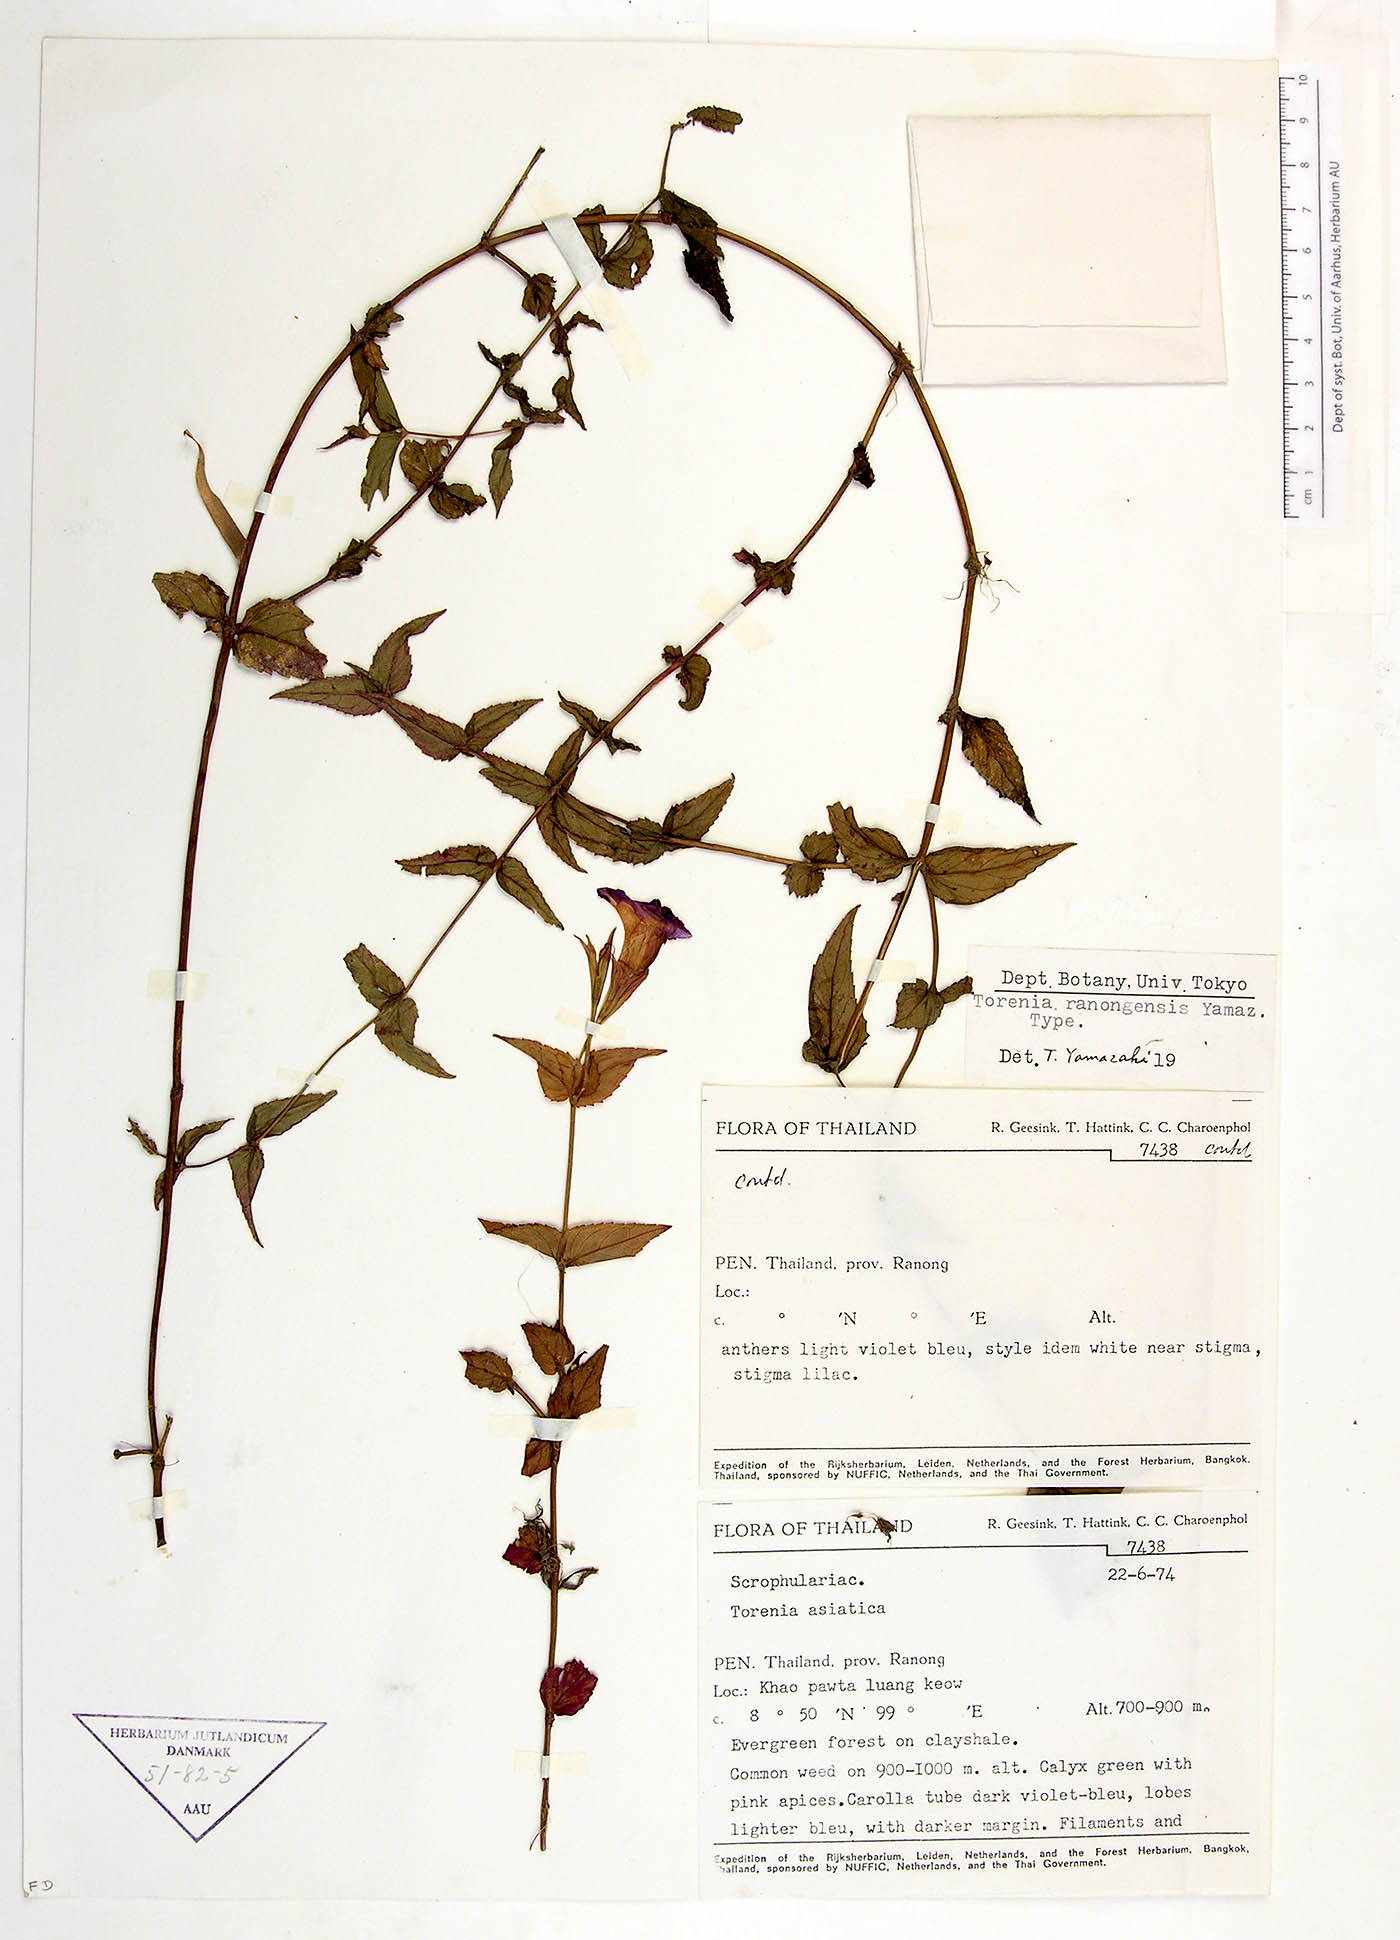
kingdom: Plantae
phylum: Tracheophyta
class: Magnoliopsida
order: Lamiales
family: Linderniaceae
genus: Torenia
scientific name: Torenia ranongensis
